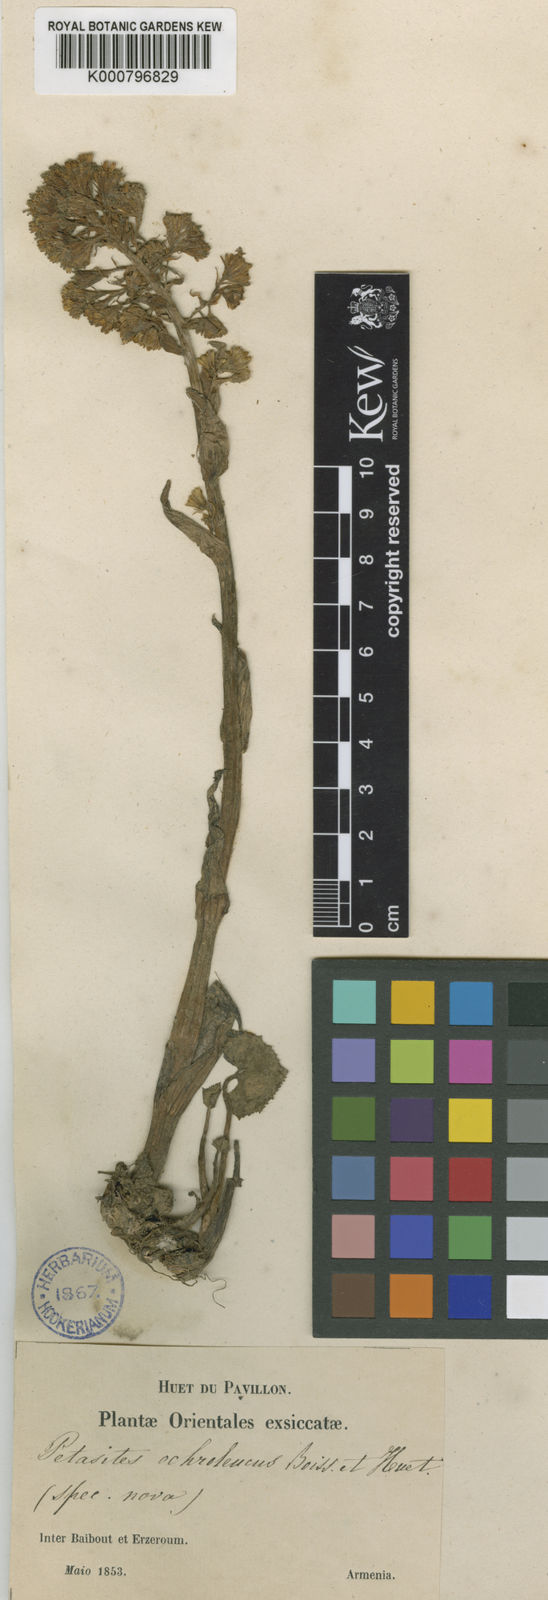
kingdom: Plantae
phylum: Tracheophyta
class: Magnoliopsida
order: Asterales
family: Asteraceae
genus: Petasites
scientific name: Petasites
